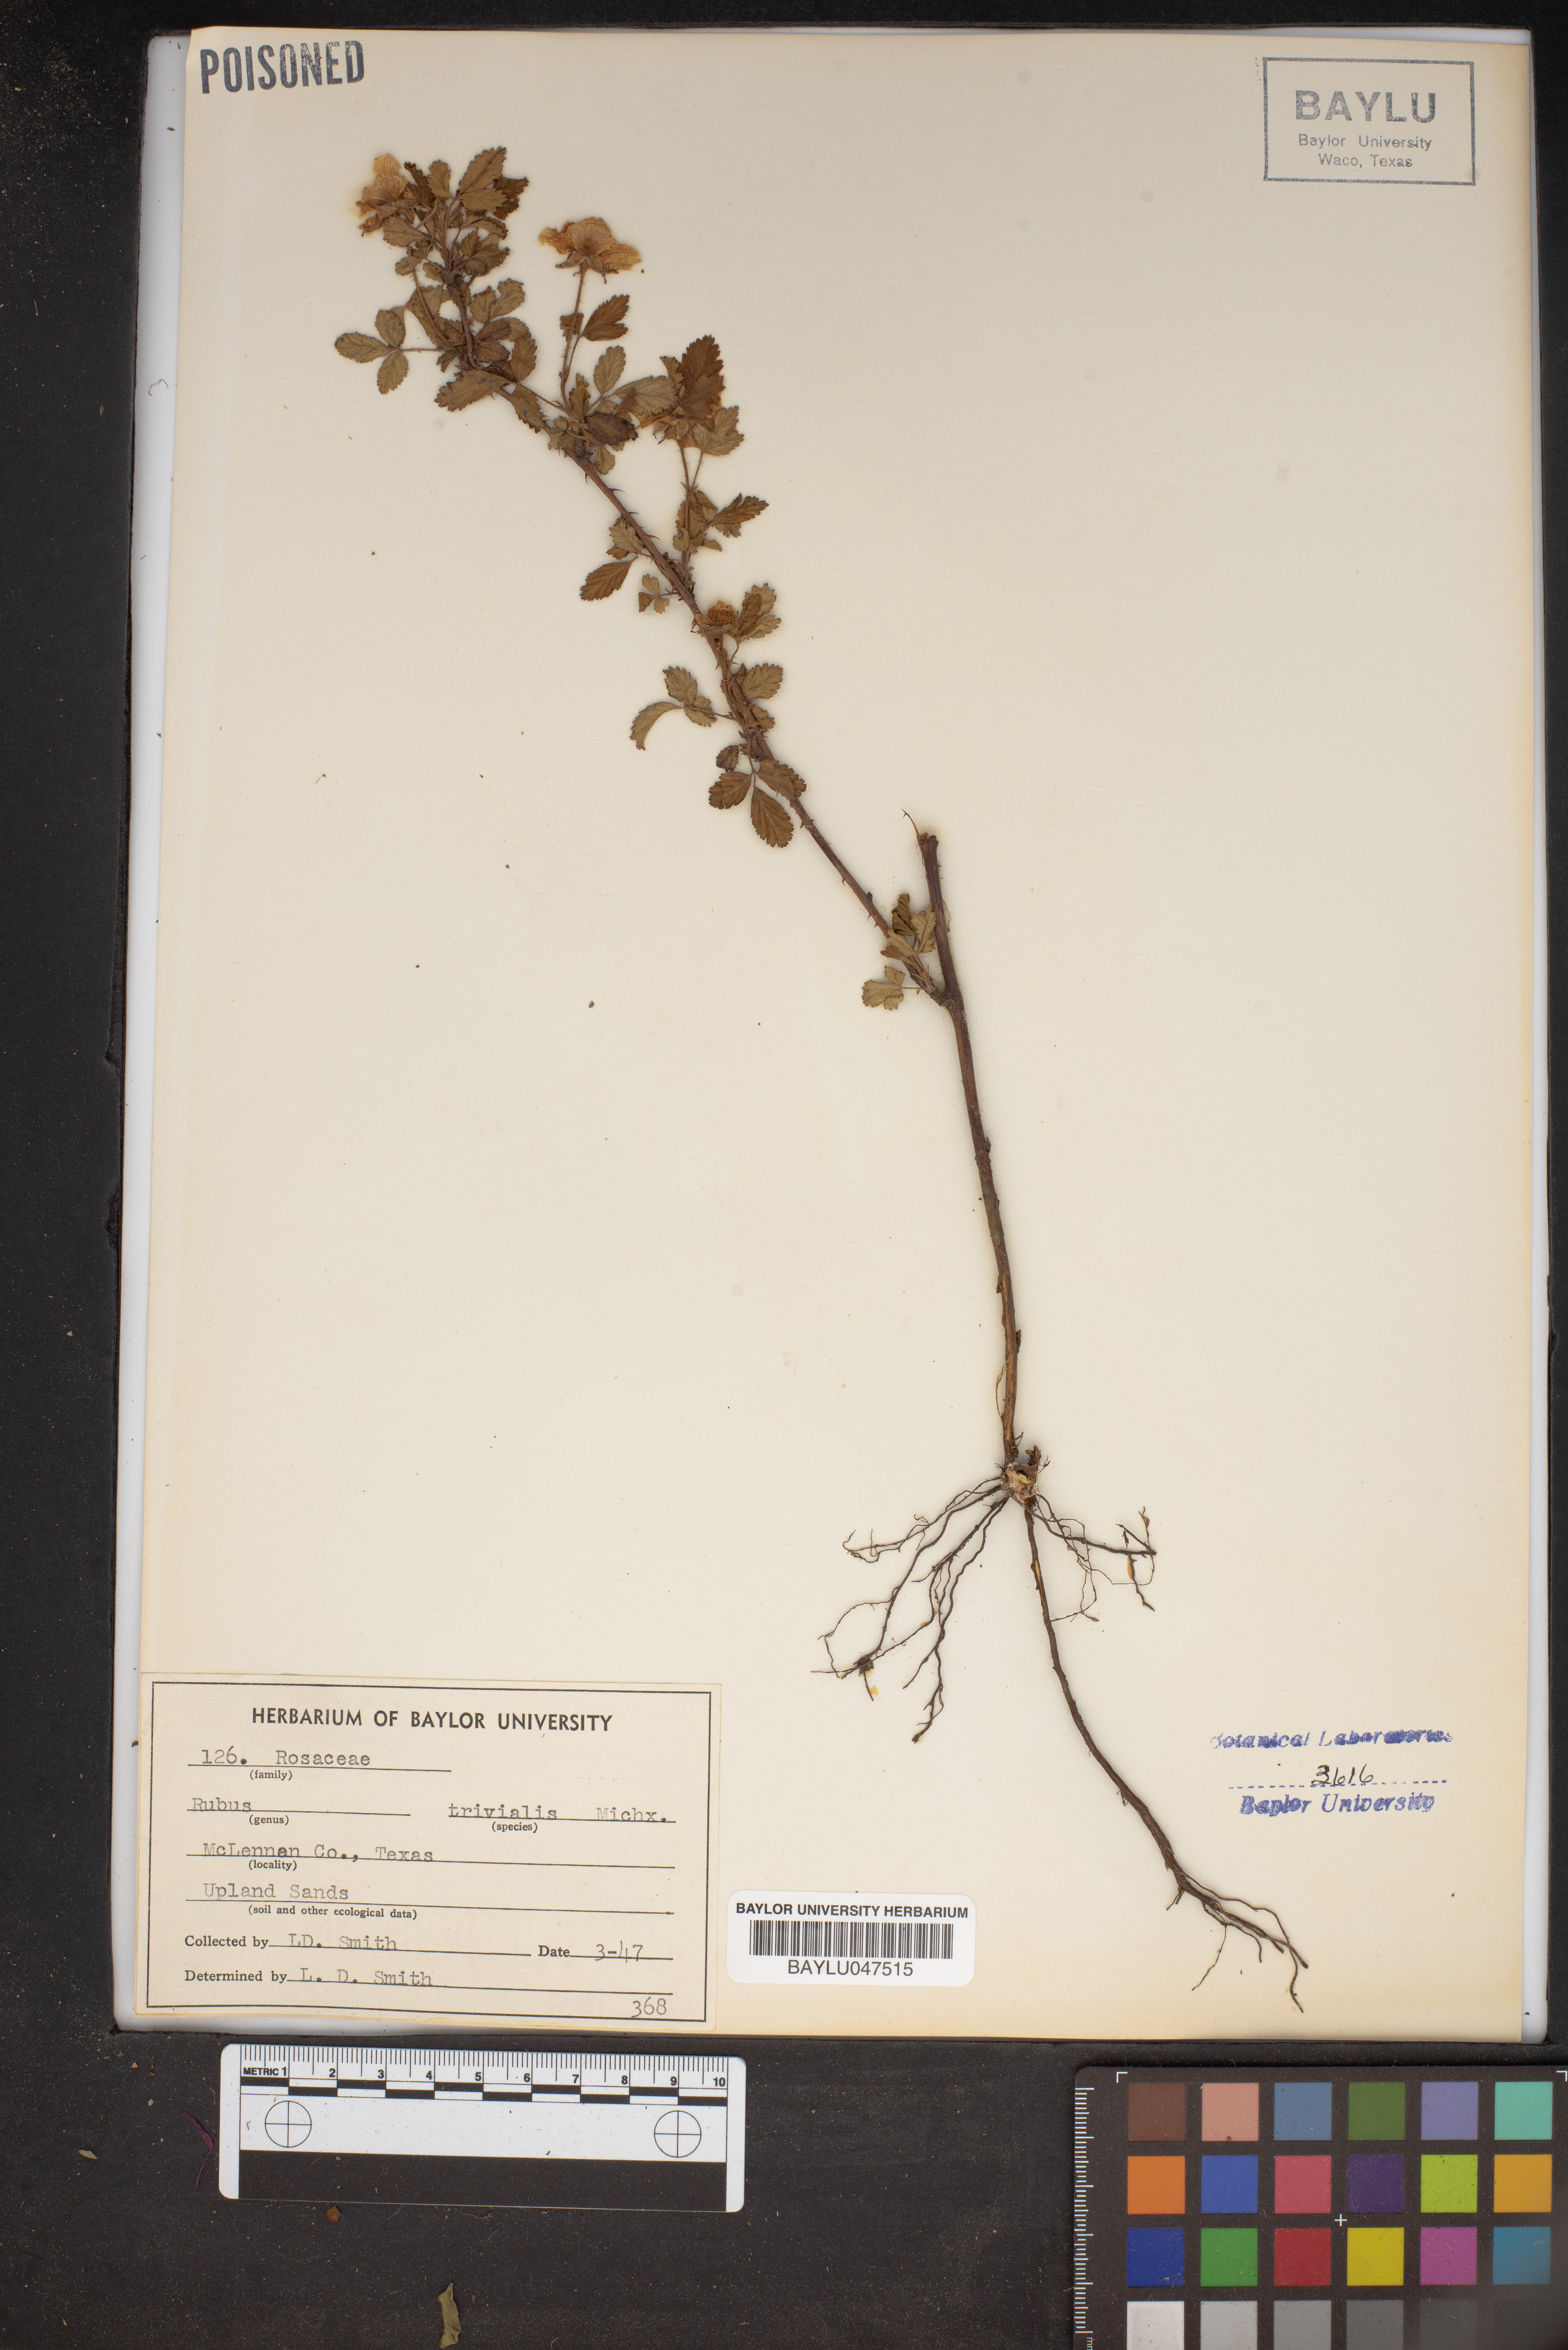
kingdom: Plantae
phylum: Tracheophyta
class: Magnoliopsida
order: Rosales
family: Rosaceae
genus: Rubus
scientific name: Rubus trivialis
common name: Southern dewberry
